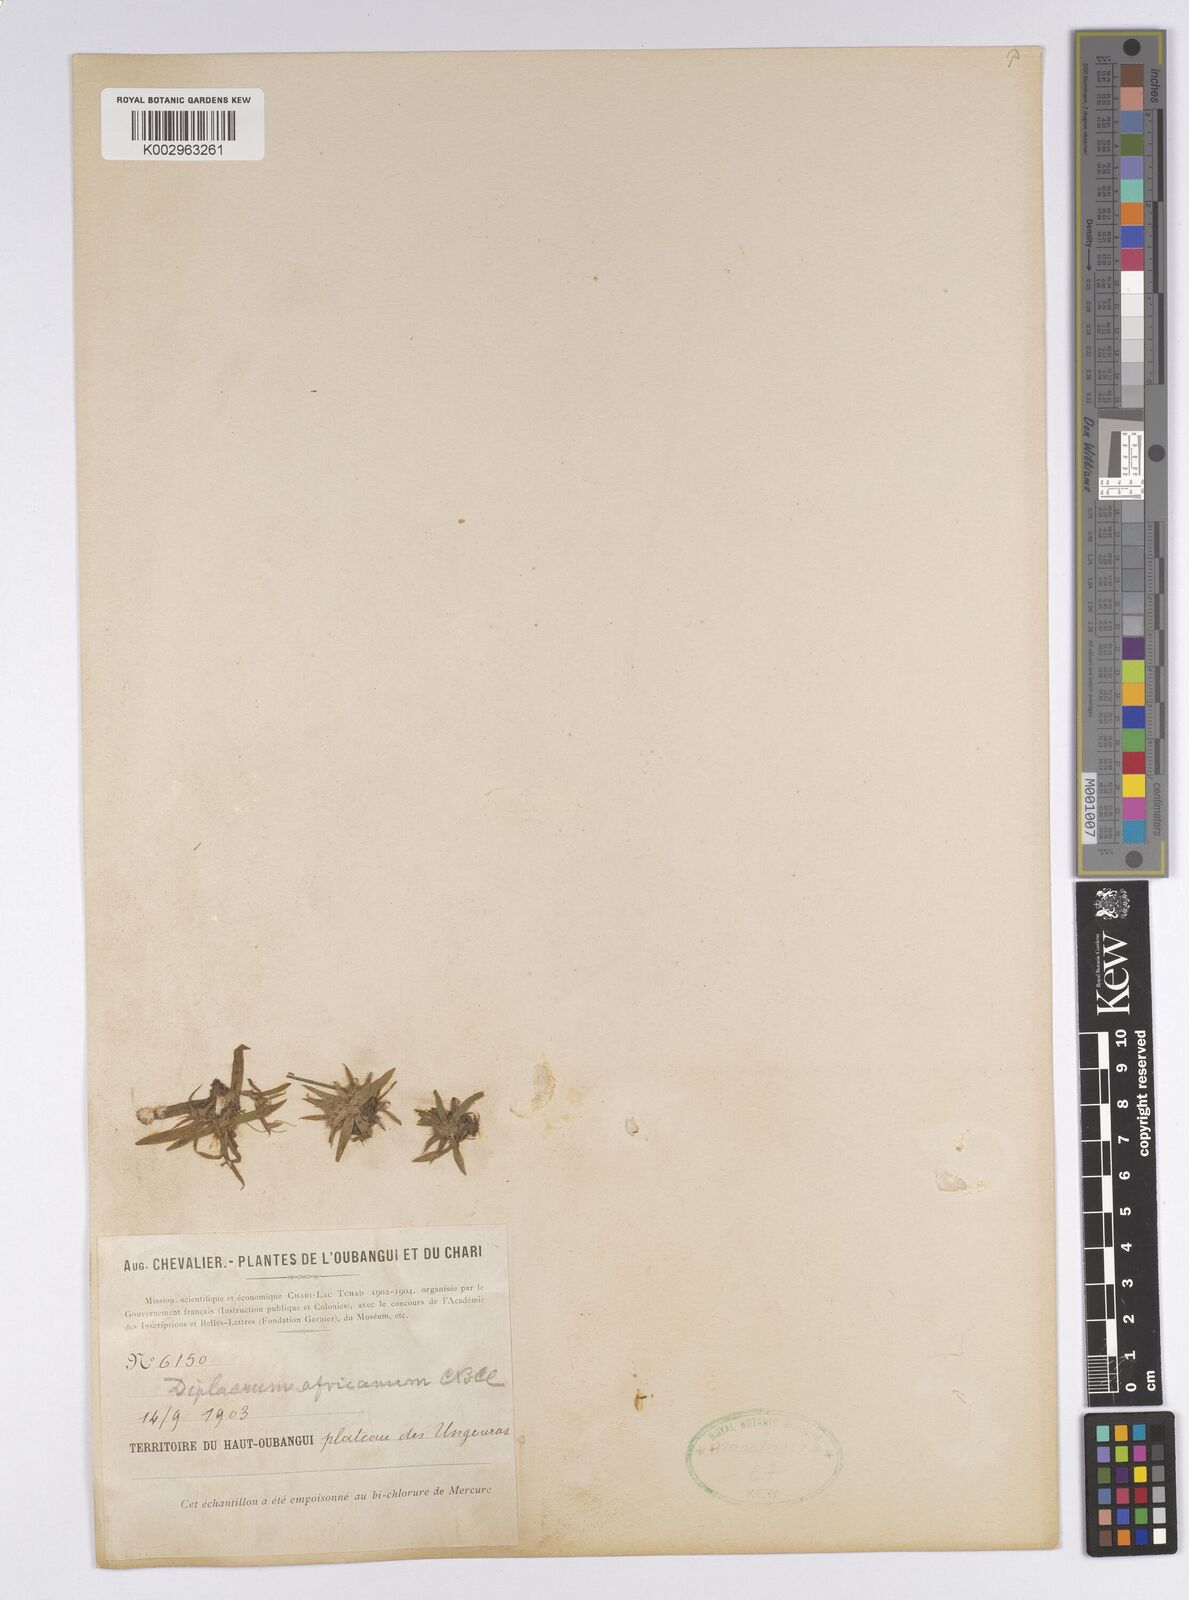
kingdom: Plantae
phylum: Tracheophyta
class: Liliopsida
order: Poales
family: Cyperaceae
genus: Diplacrum
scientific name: Diplacrum africanum
